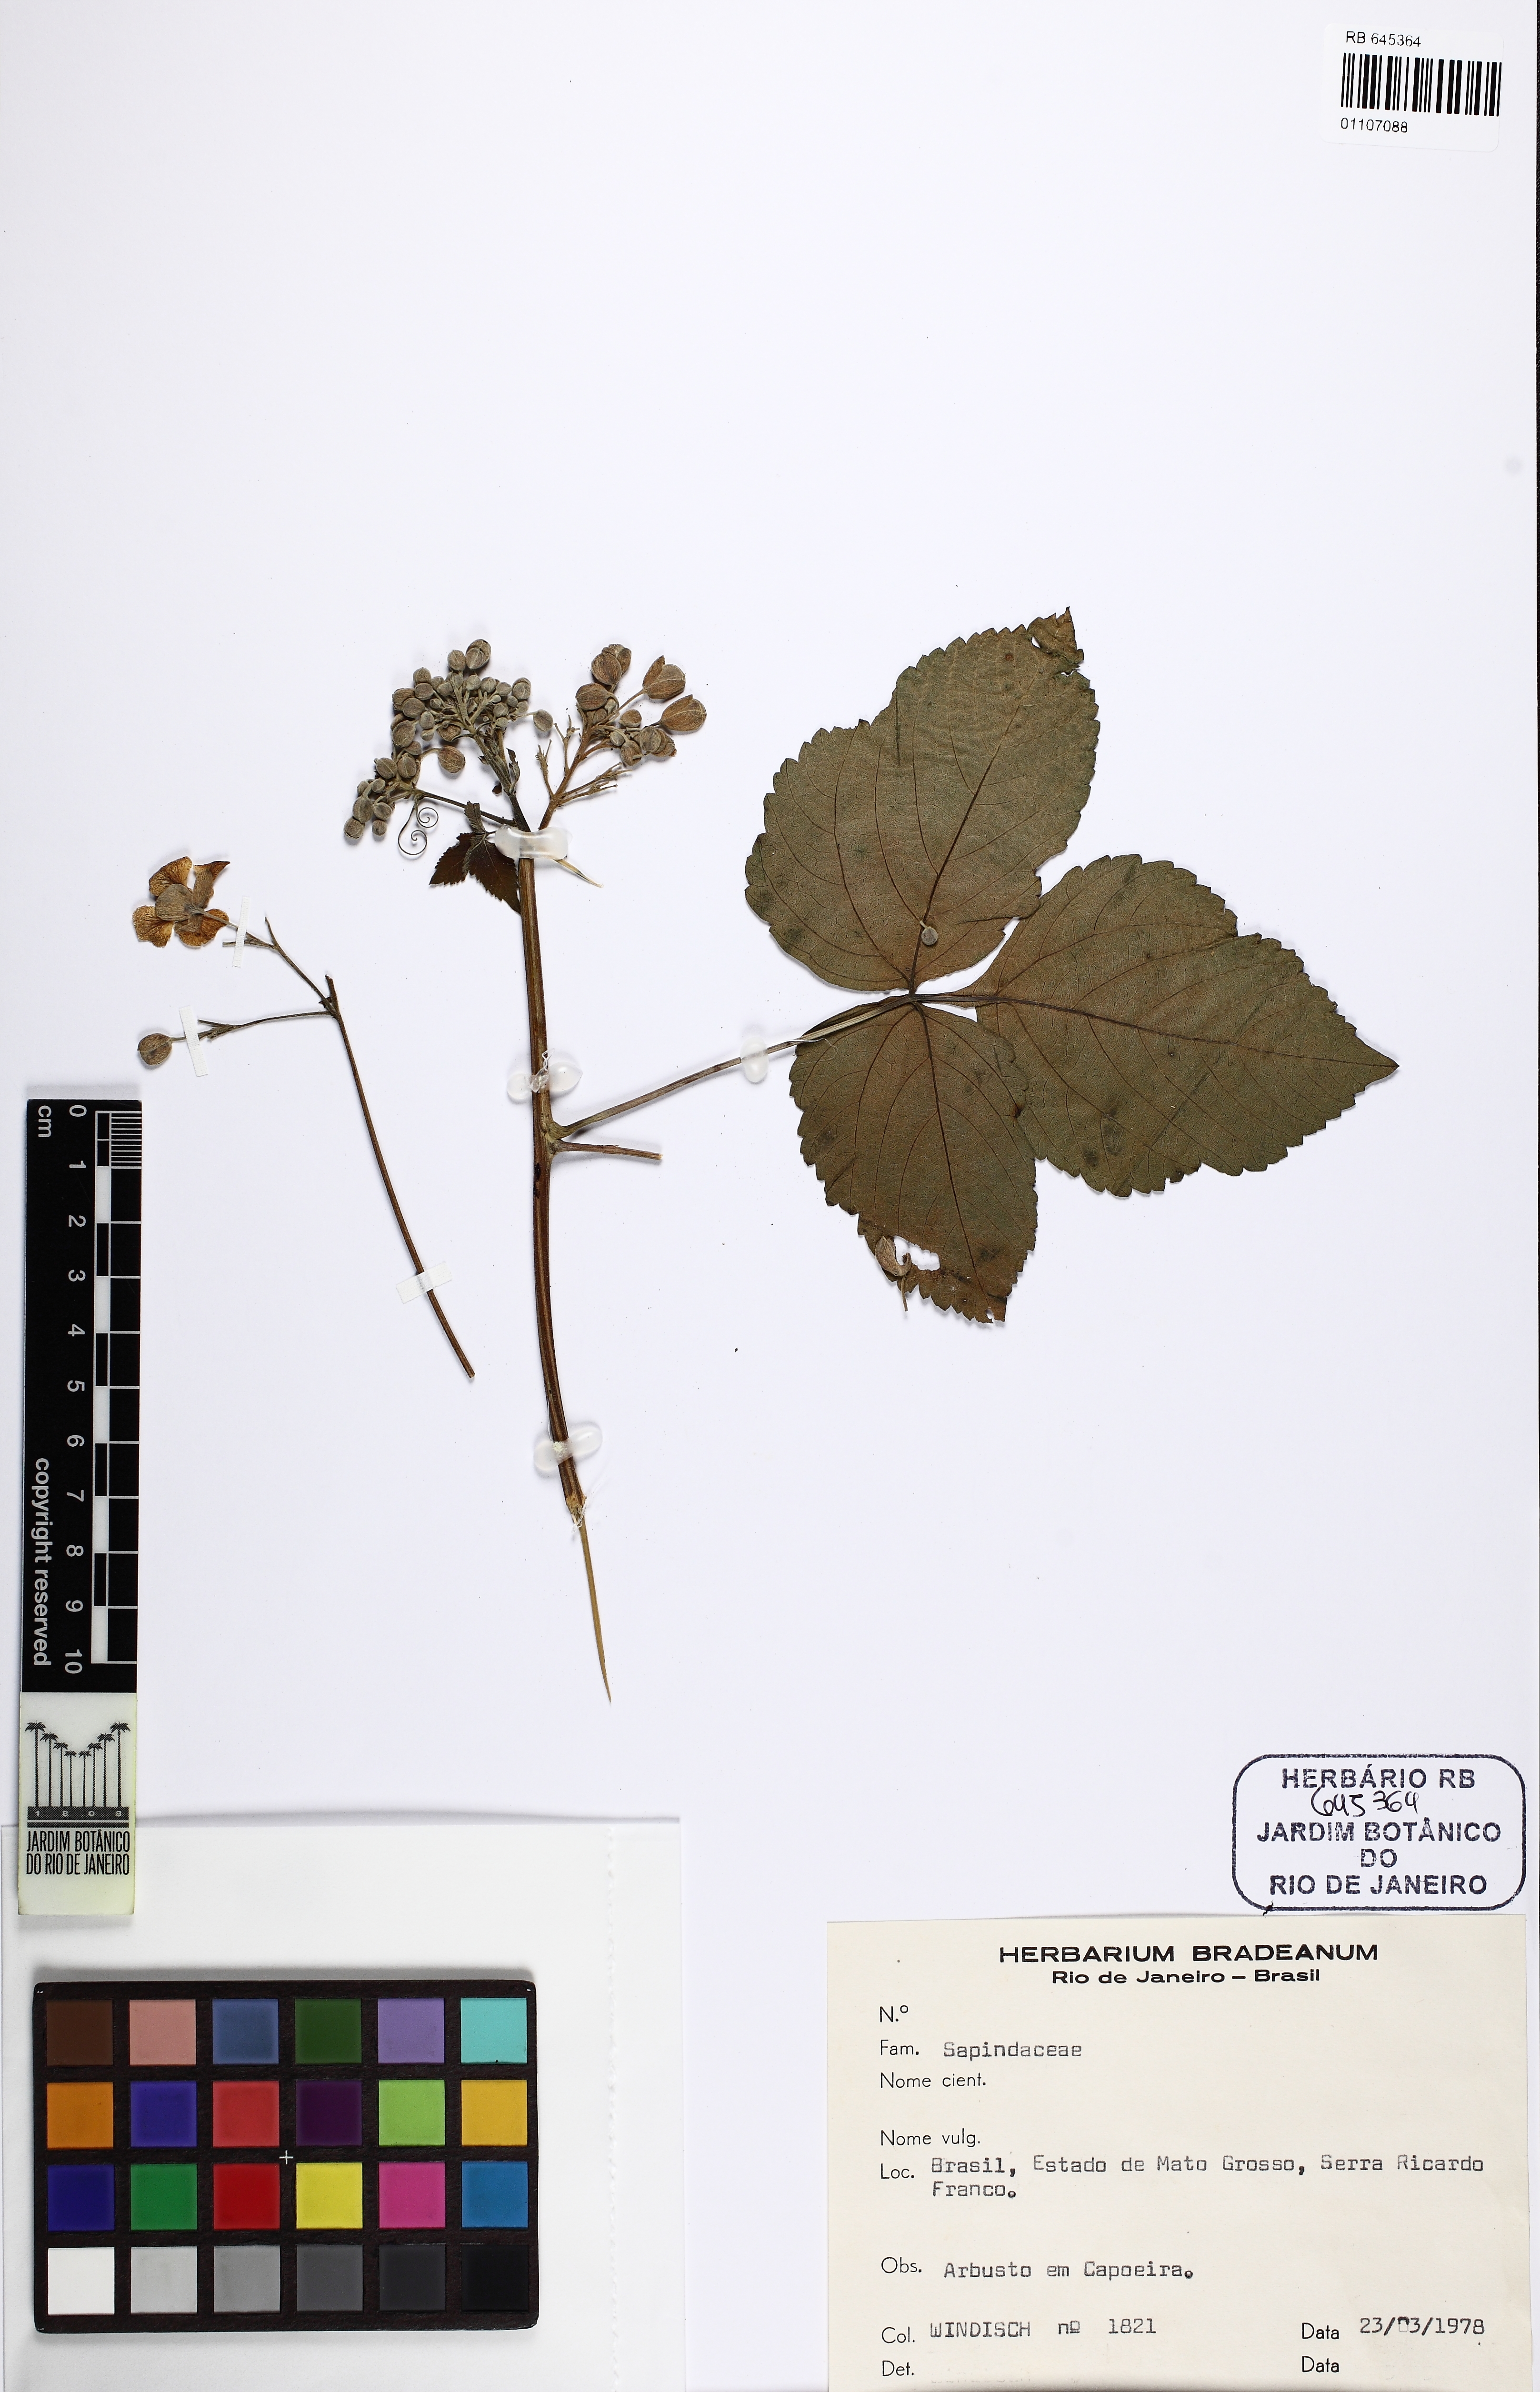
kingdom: Plantae
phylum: Tracheophyta
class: Magnoliopsida
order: Sapindales
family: Sapindaceae
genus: Serjania
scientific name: Serjania platycarpa
